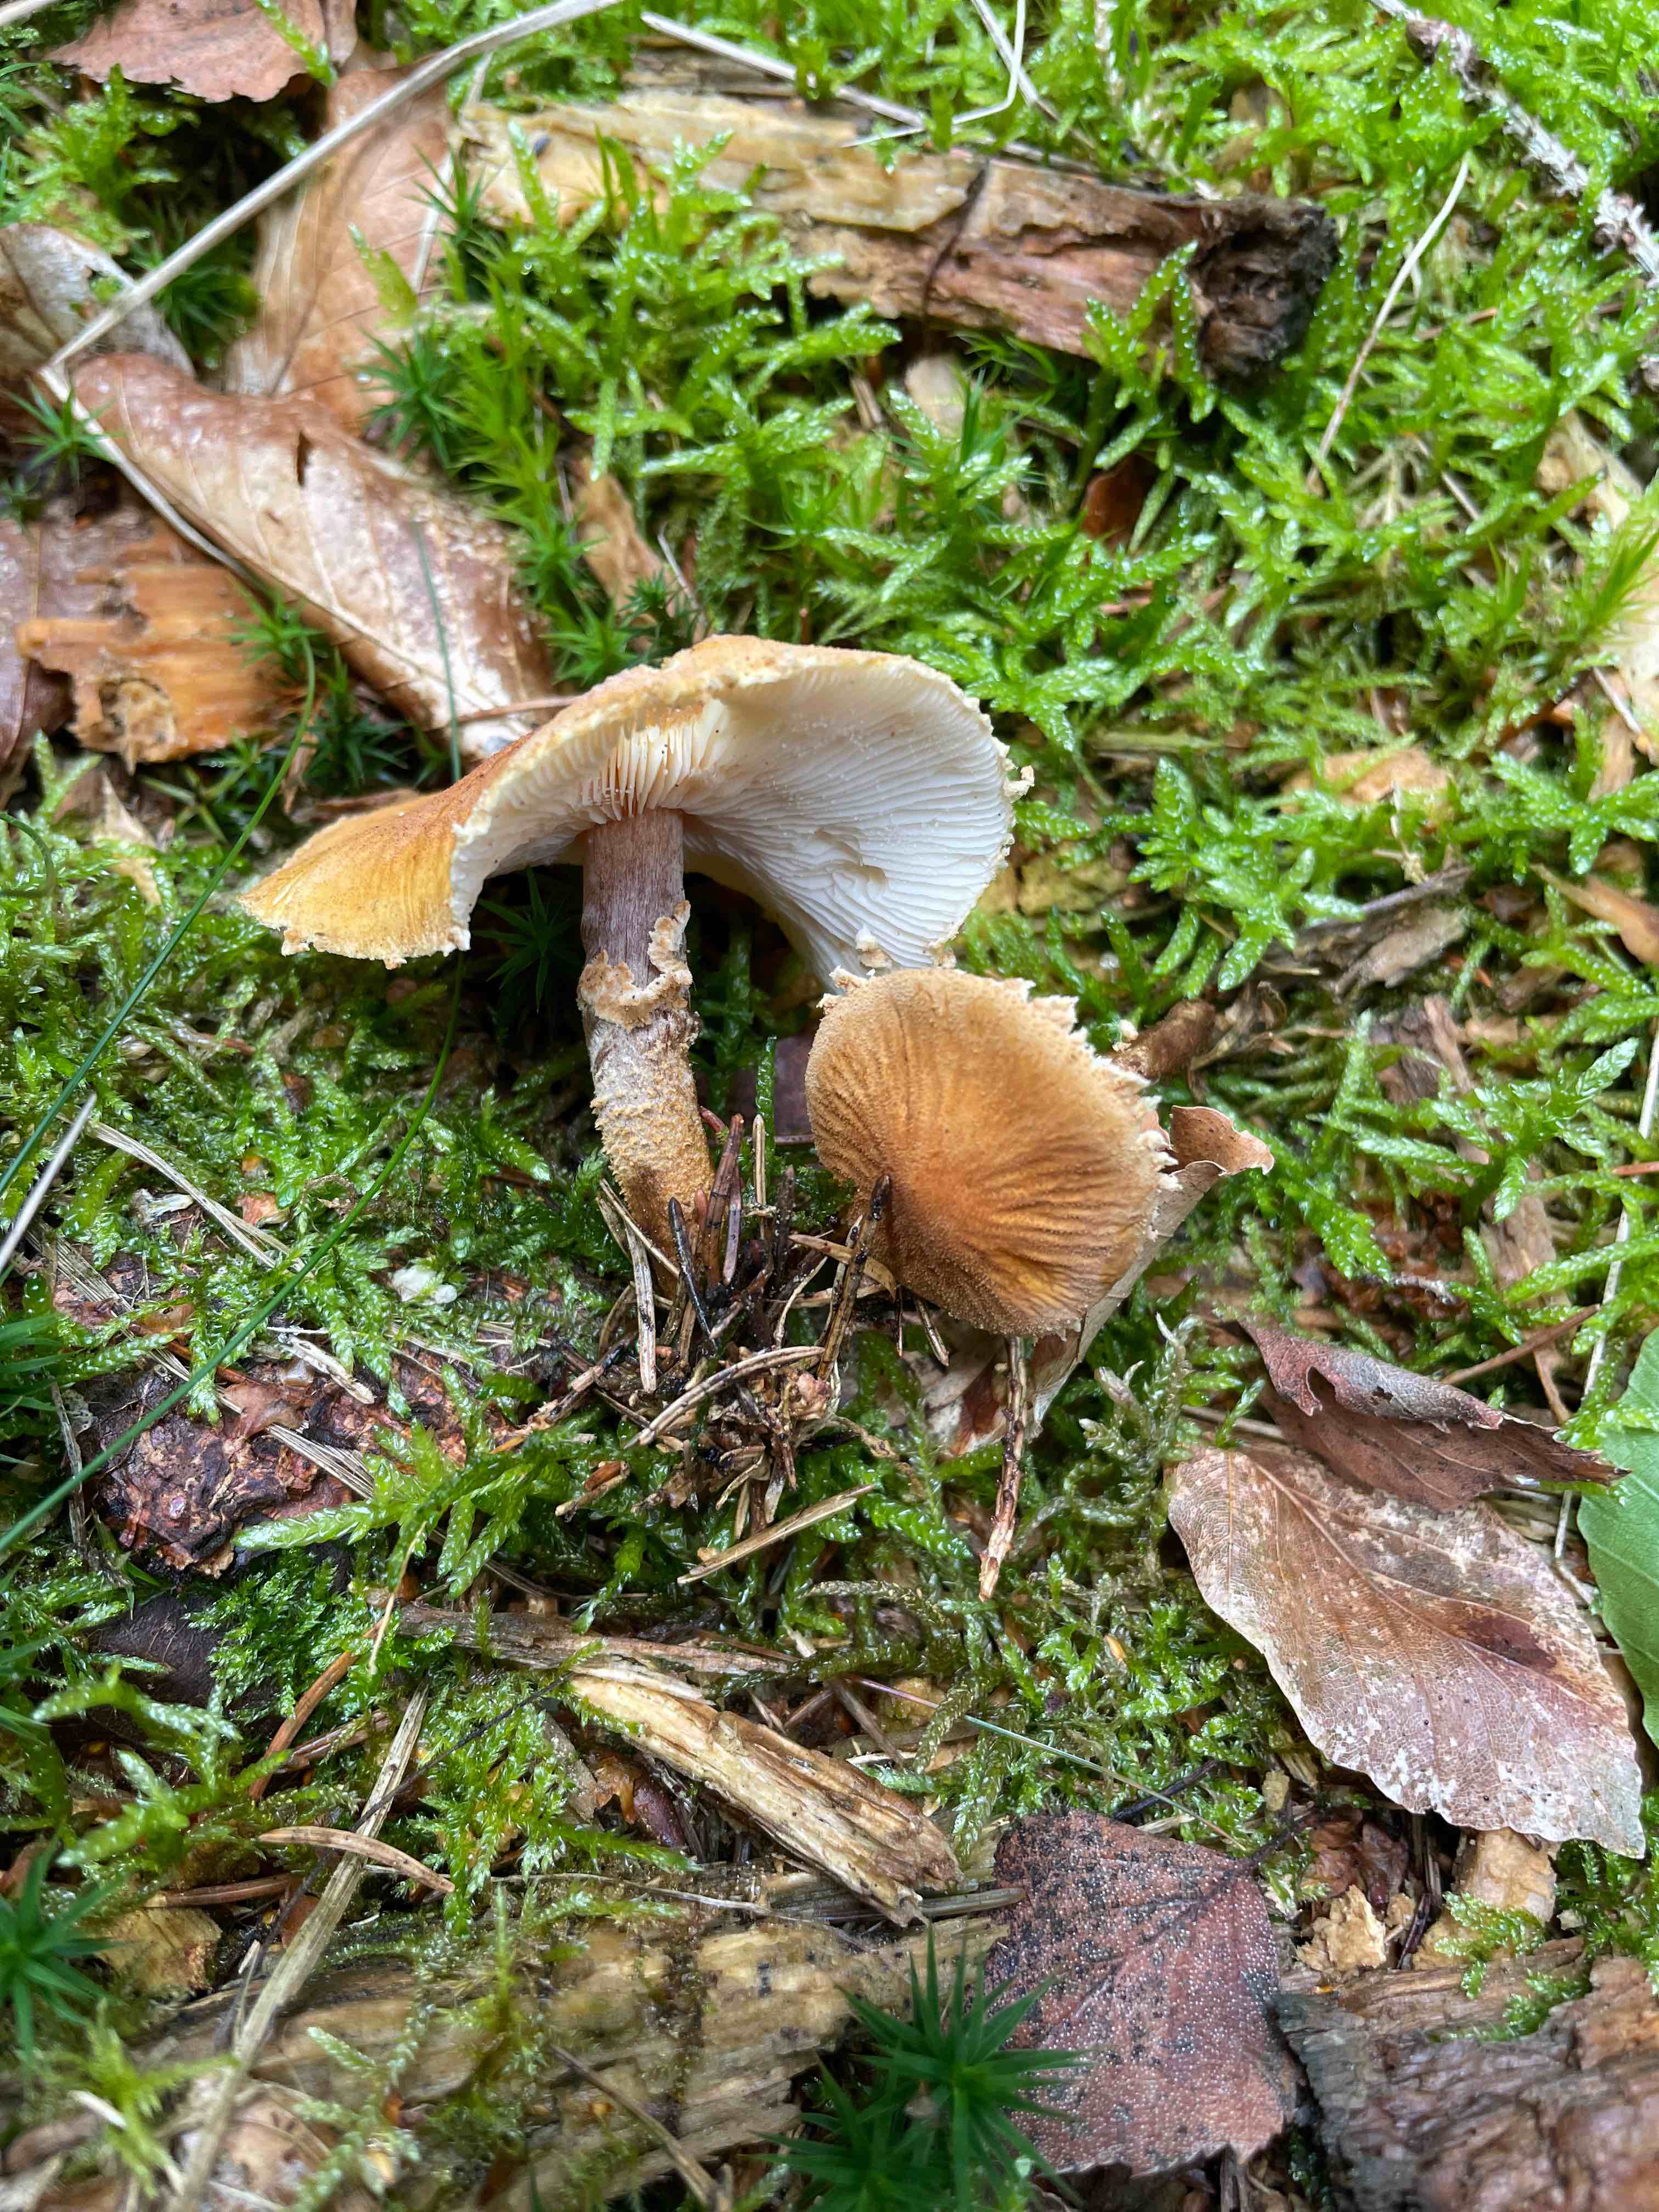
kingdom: Fungi
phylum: Basidiomycota
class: Agaricomycetes
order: Agaricales
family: Tricholomataceae
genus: Cystoderma
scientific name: Cystoderma
